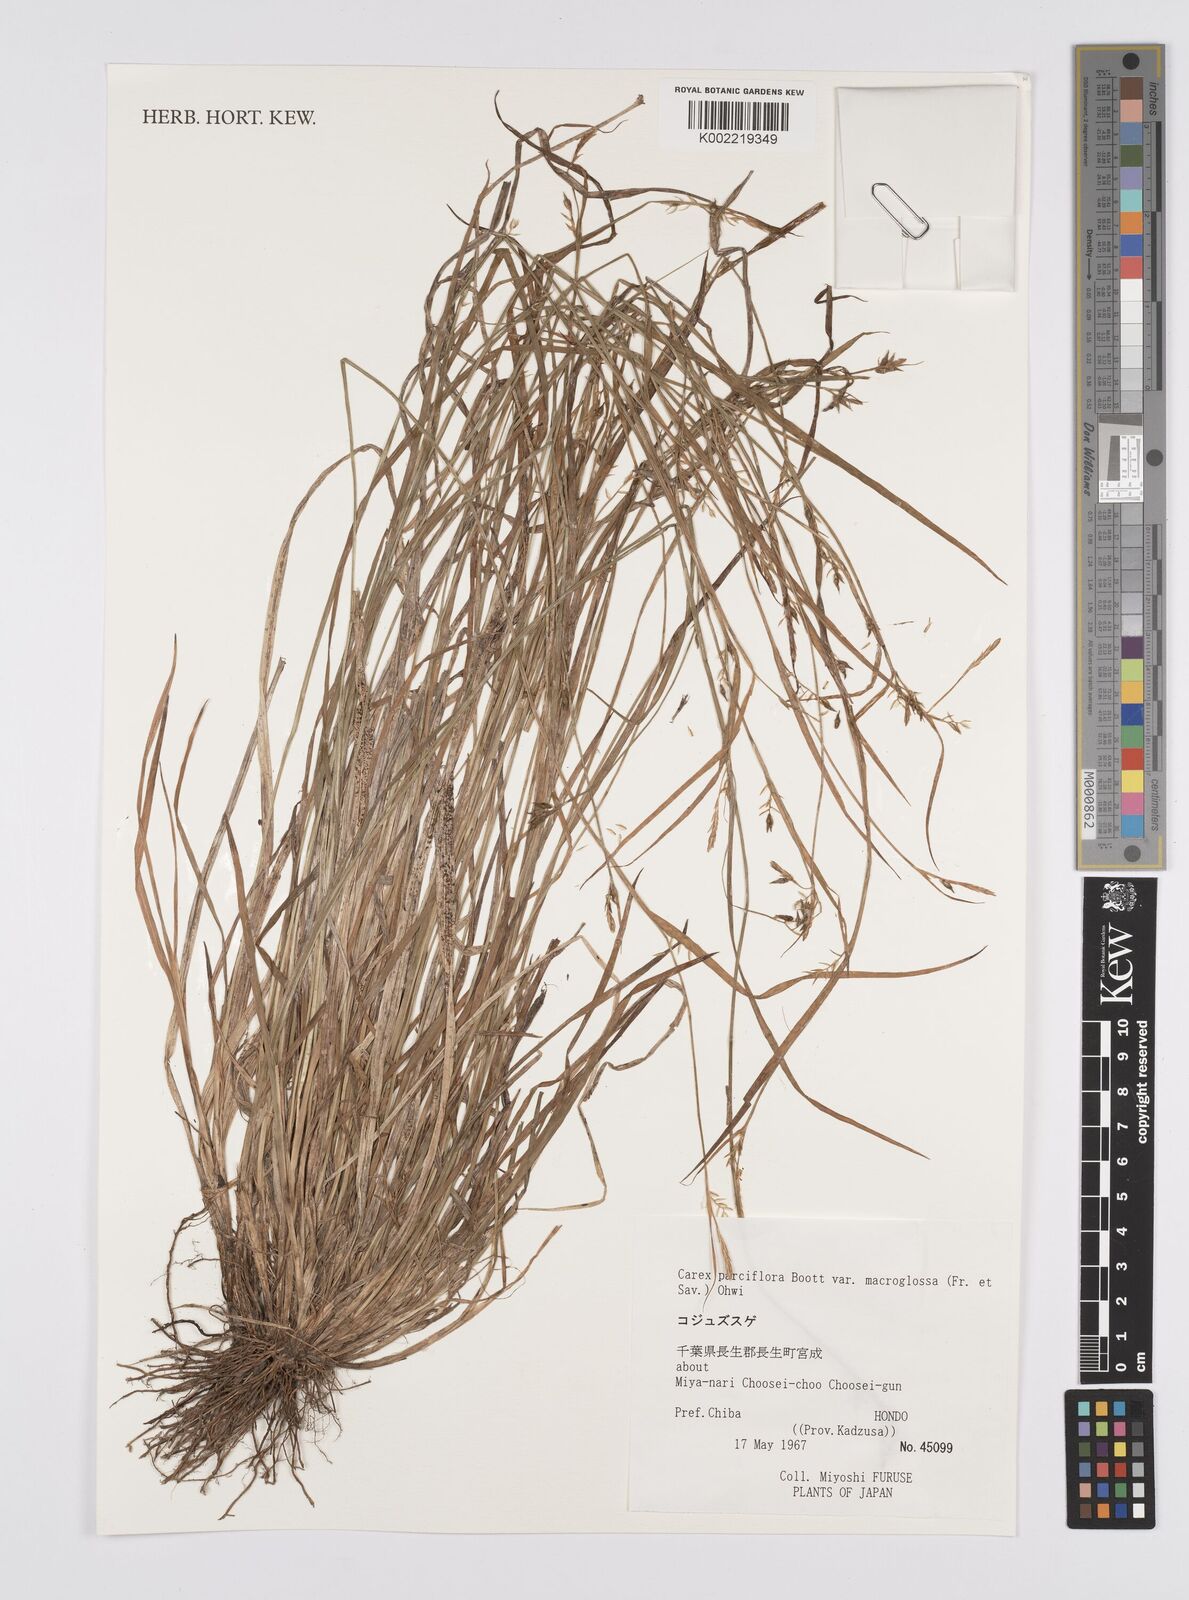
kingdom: Plantae
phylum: Tracheophyta
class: Liliopsida
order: Poales
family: Cyperaceae
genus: Carex
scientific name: Carex pauciflora
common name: Few-flowered sedge
